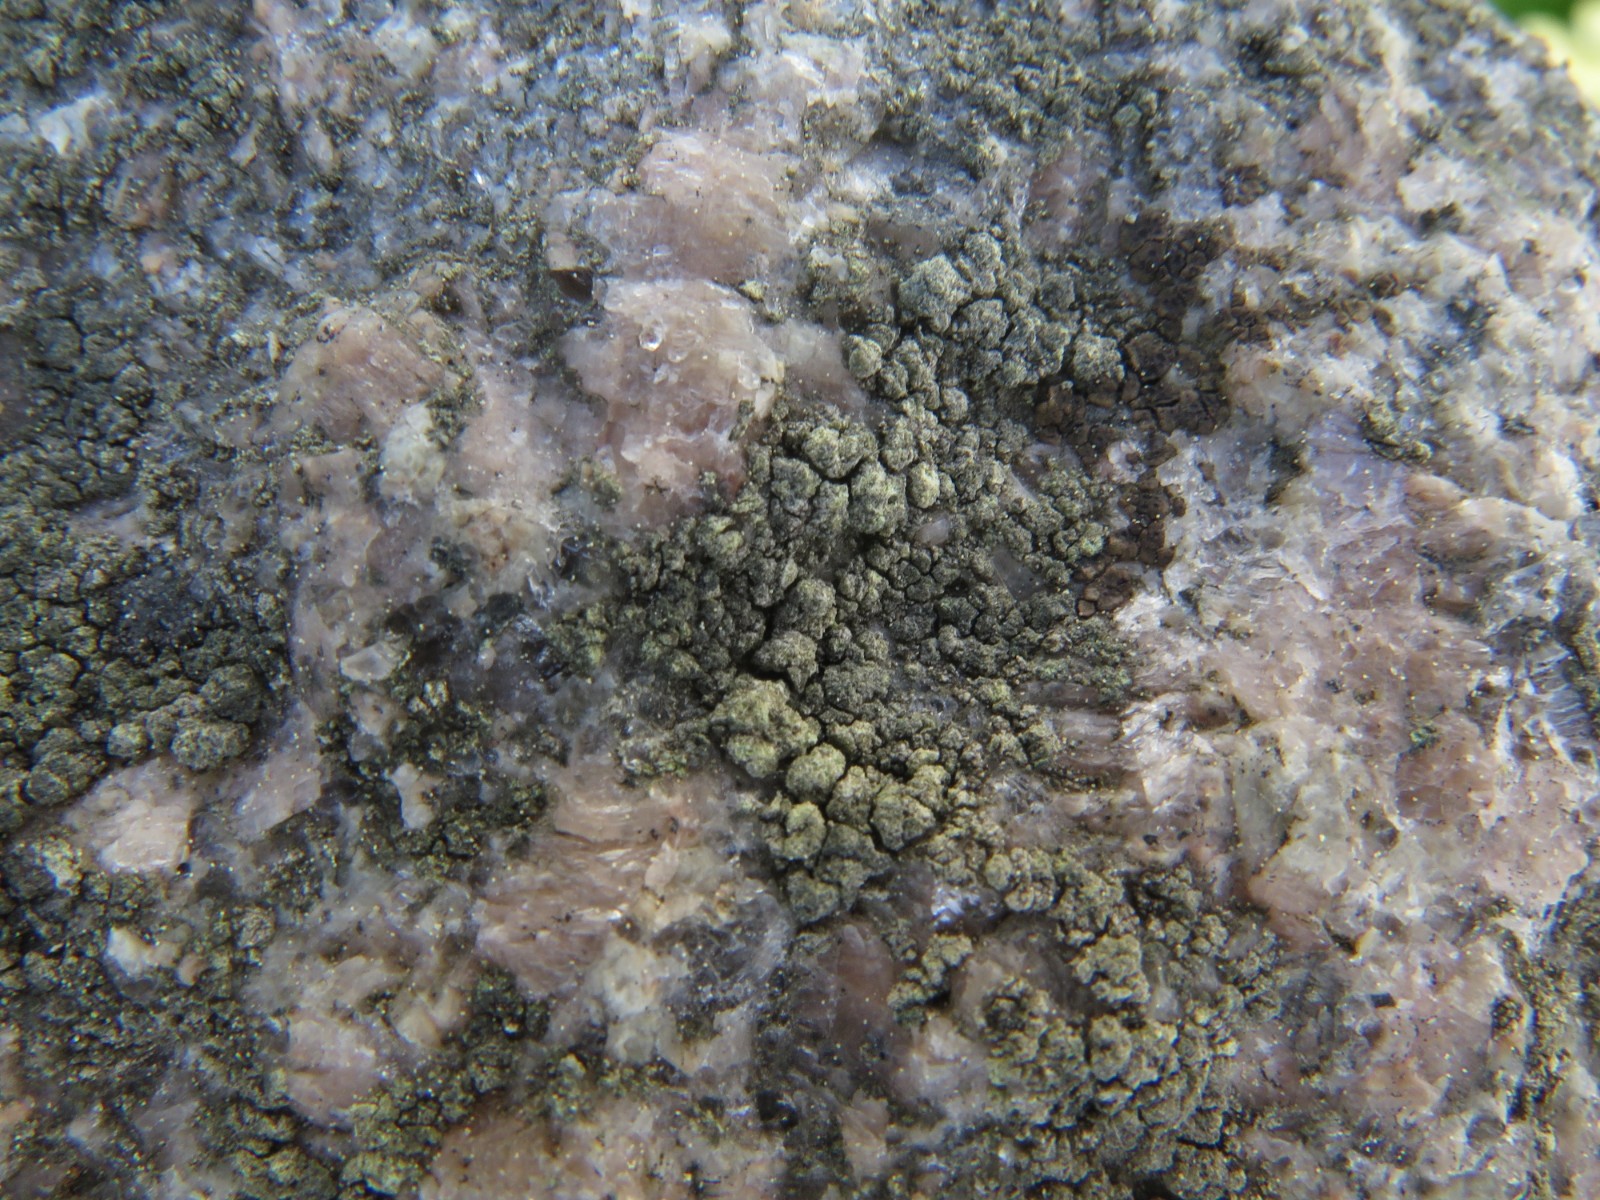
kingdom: Fungi
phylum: Ascomycota
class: Lecanoromycetes
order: Lecanorales
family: Lecanoraceae
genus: Lecanora
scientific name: Lecanora orosthea
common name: grønskurvet kantskivelav
